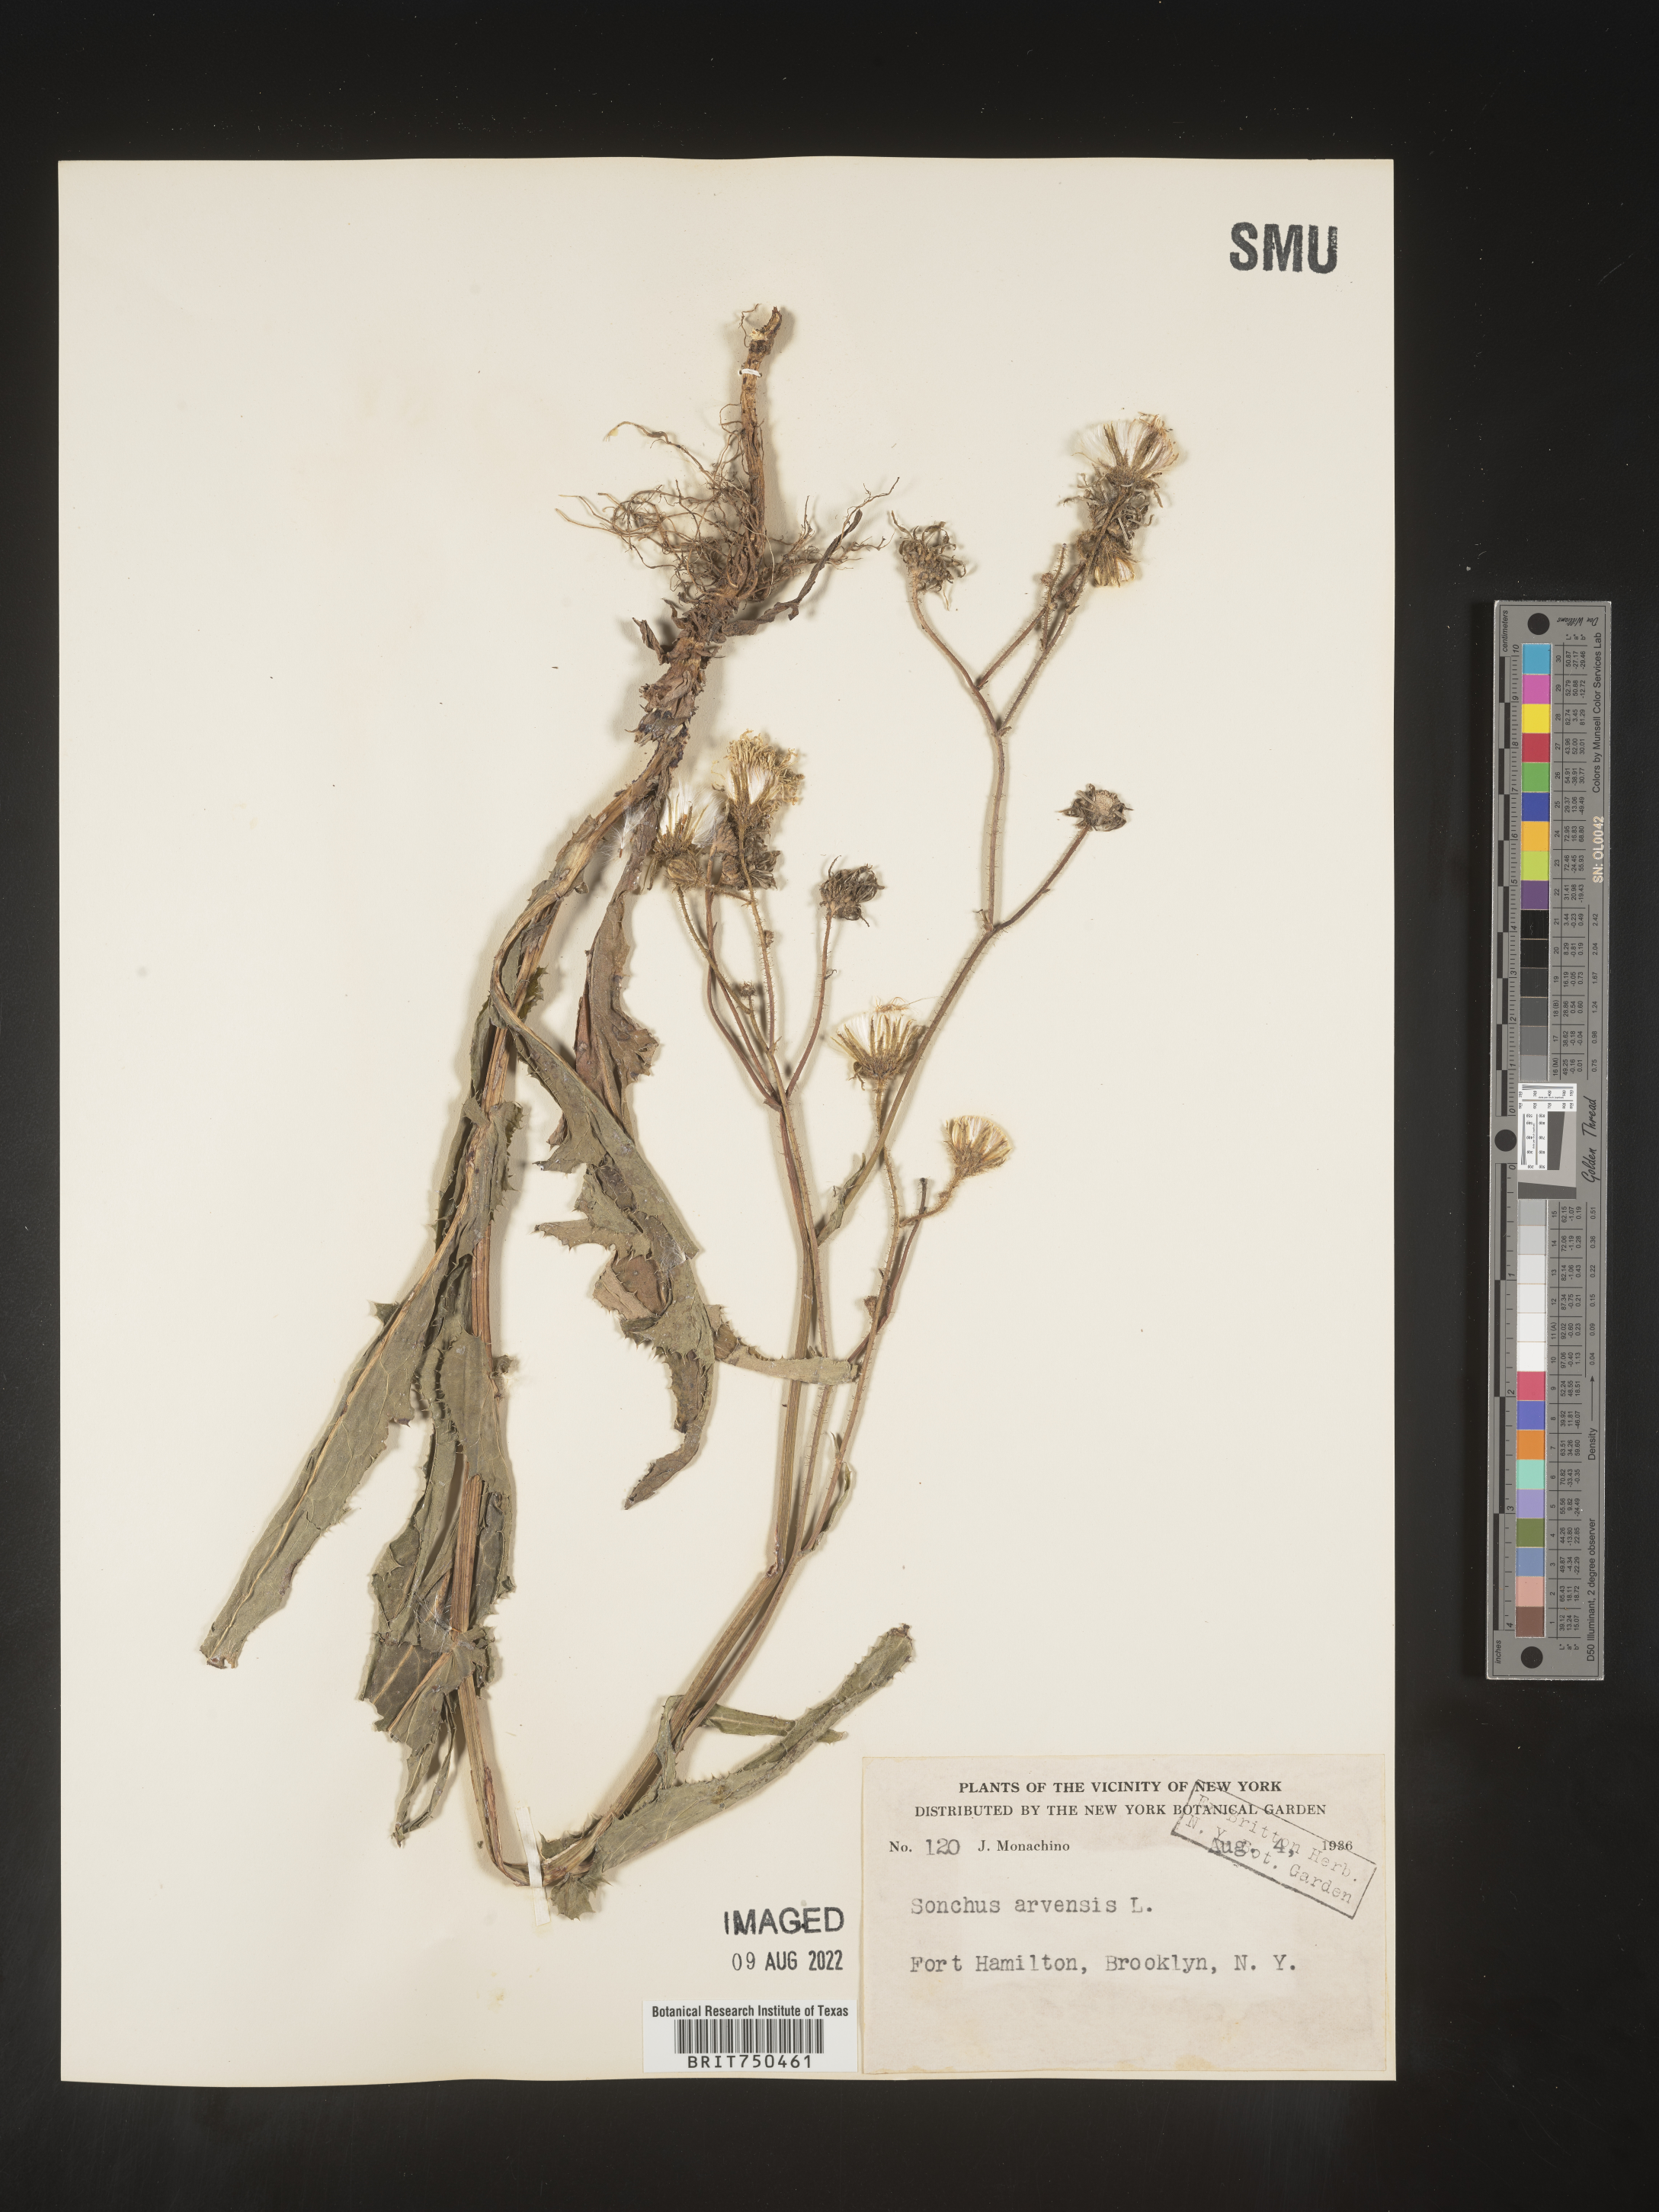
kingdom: Plantae
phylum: Tracheophyta
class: Magnoliopsida
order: Asterales
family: Asteraceae
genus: Sonchus
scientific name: Sonchus arvensis
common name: Perennial sow-thistle
